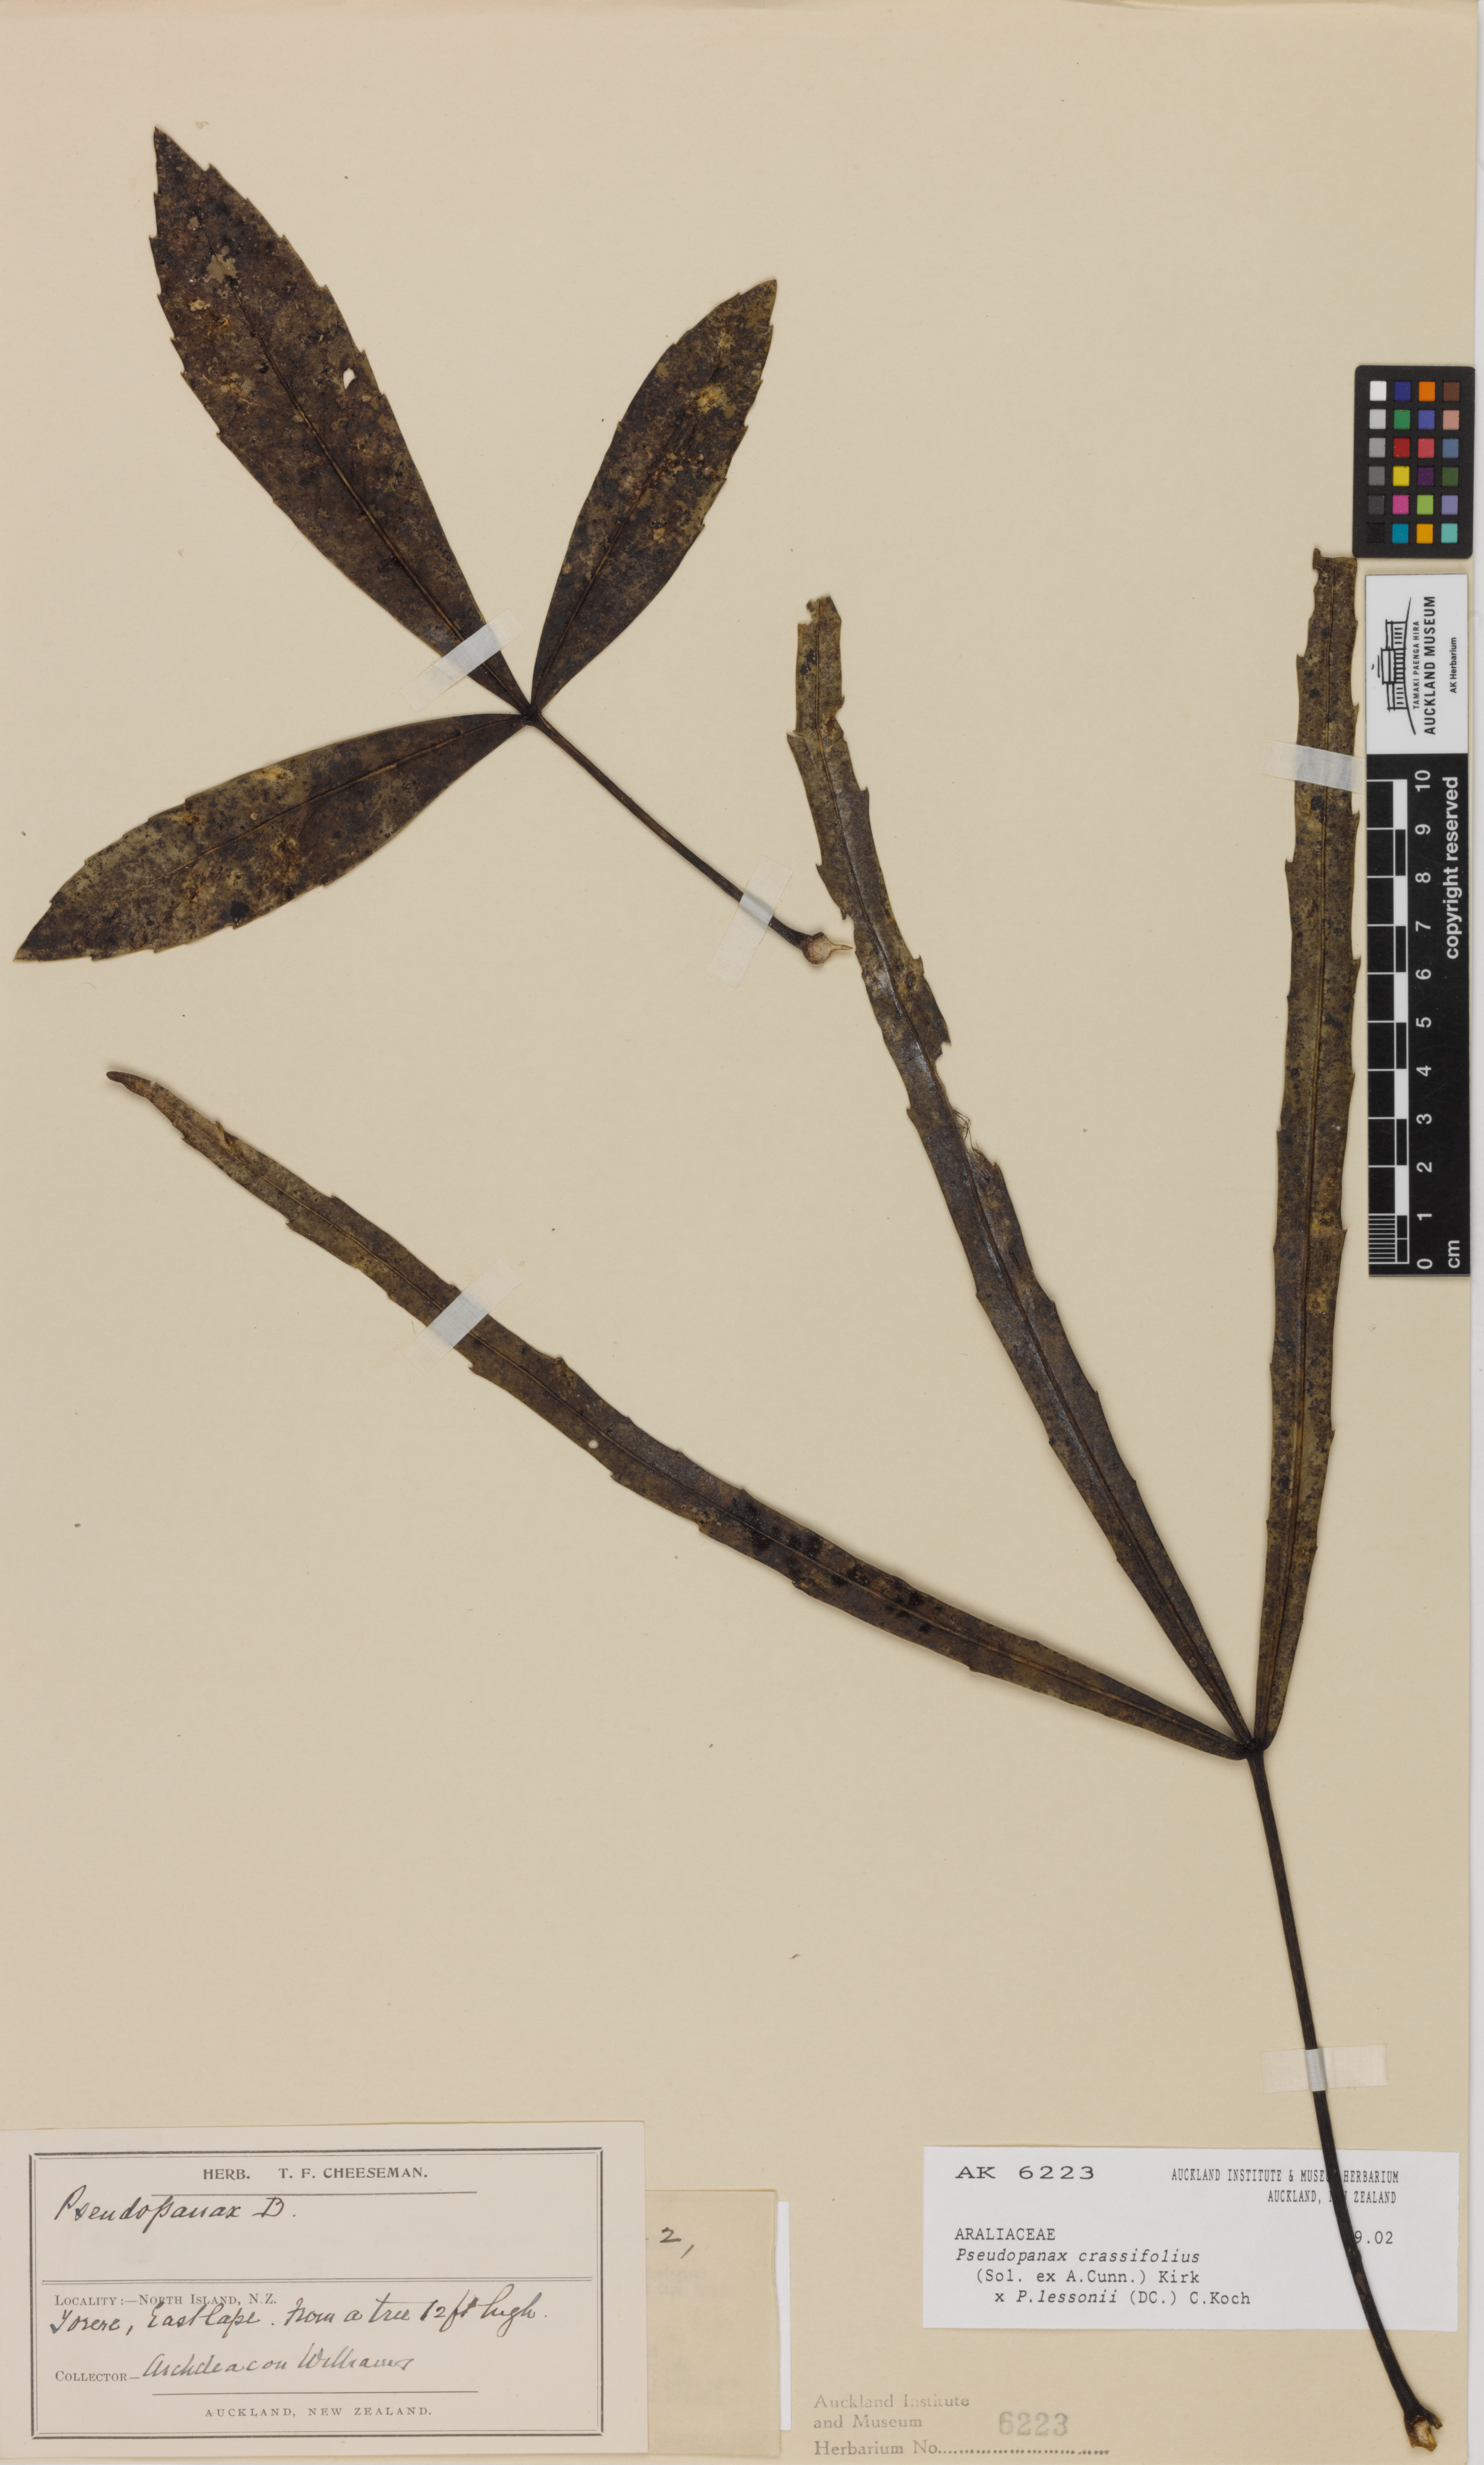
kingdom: Plantae
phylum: Tracheophyta
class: Magnoliopsida
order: Apiales
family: Araliaceae
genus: Pseudopanax
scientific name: Pseudopanax
